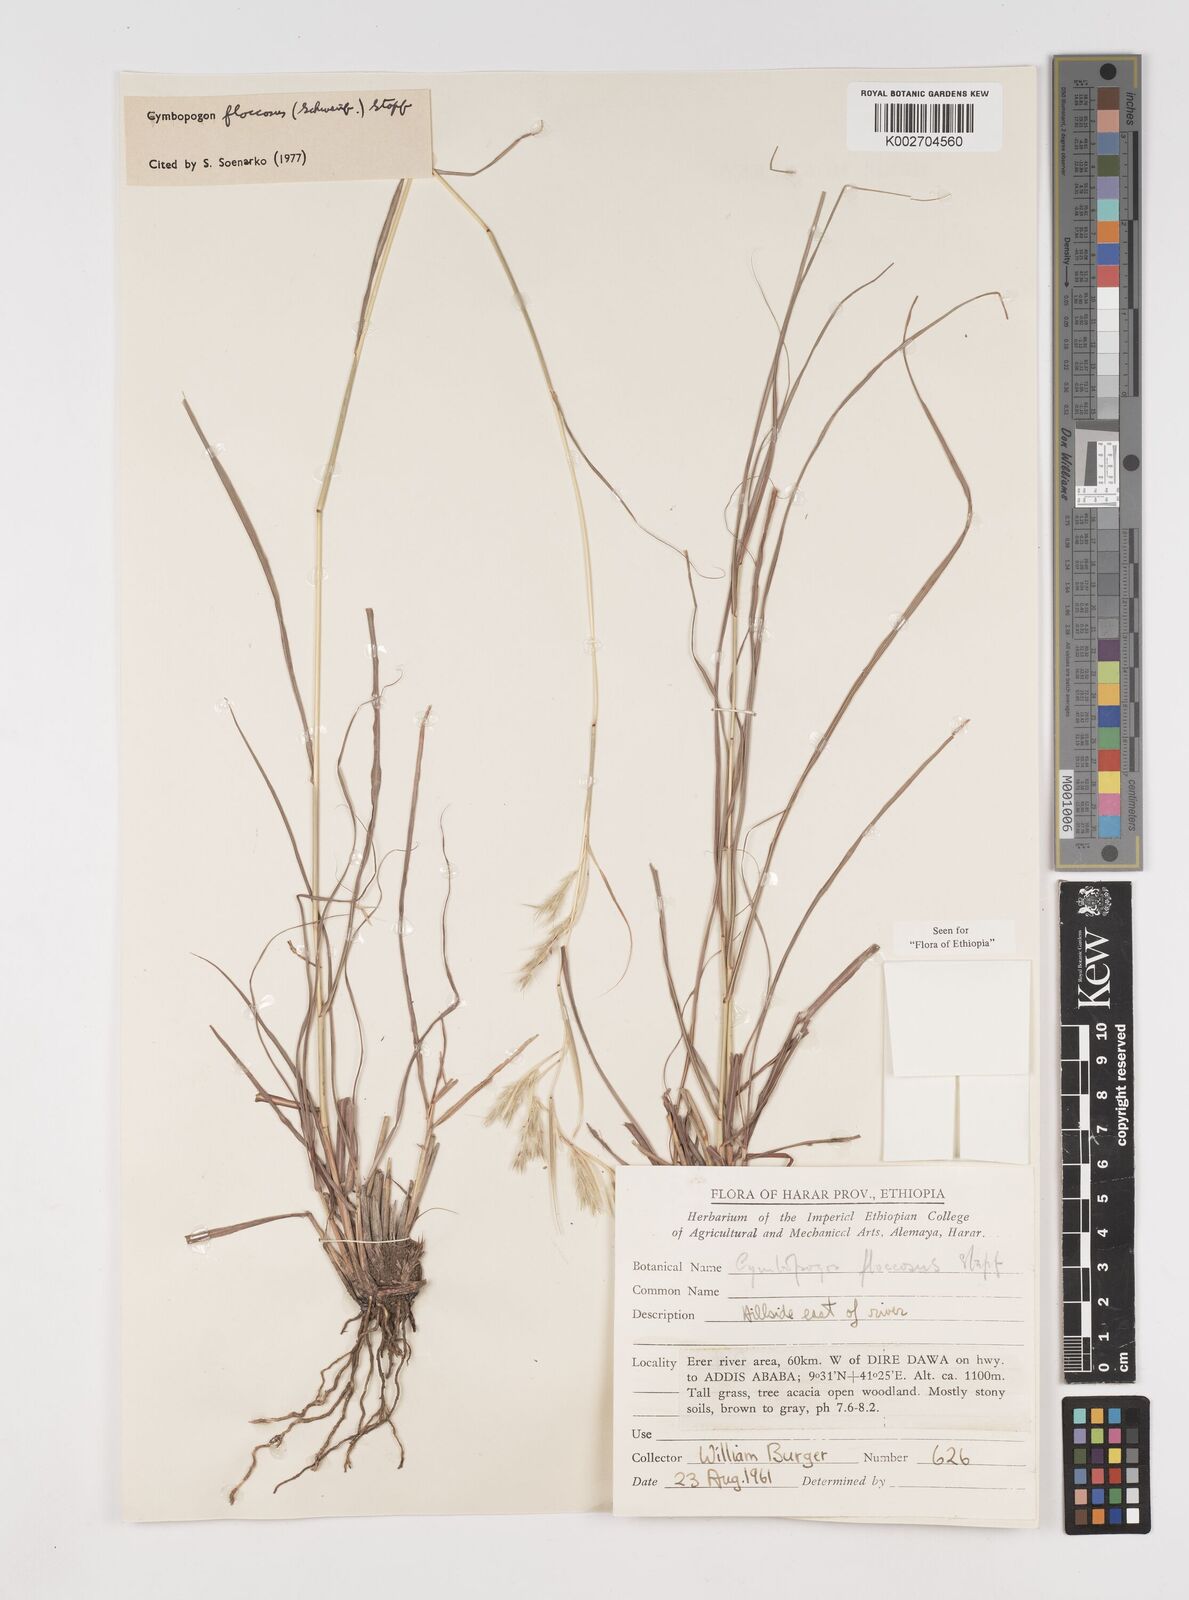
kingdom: Plantae
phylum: Tracheophyta
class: Liliopsida
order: Poales
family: Poaceae
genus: Cymbopogon
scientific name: Cymbopogon
